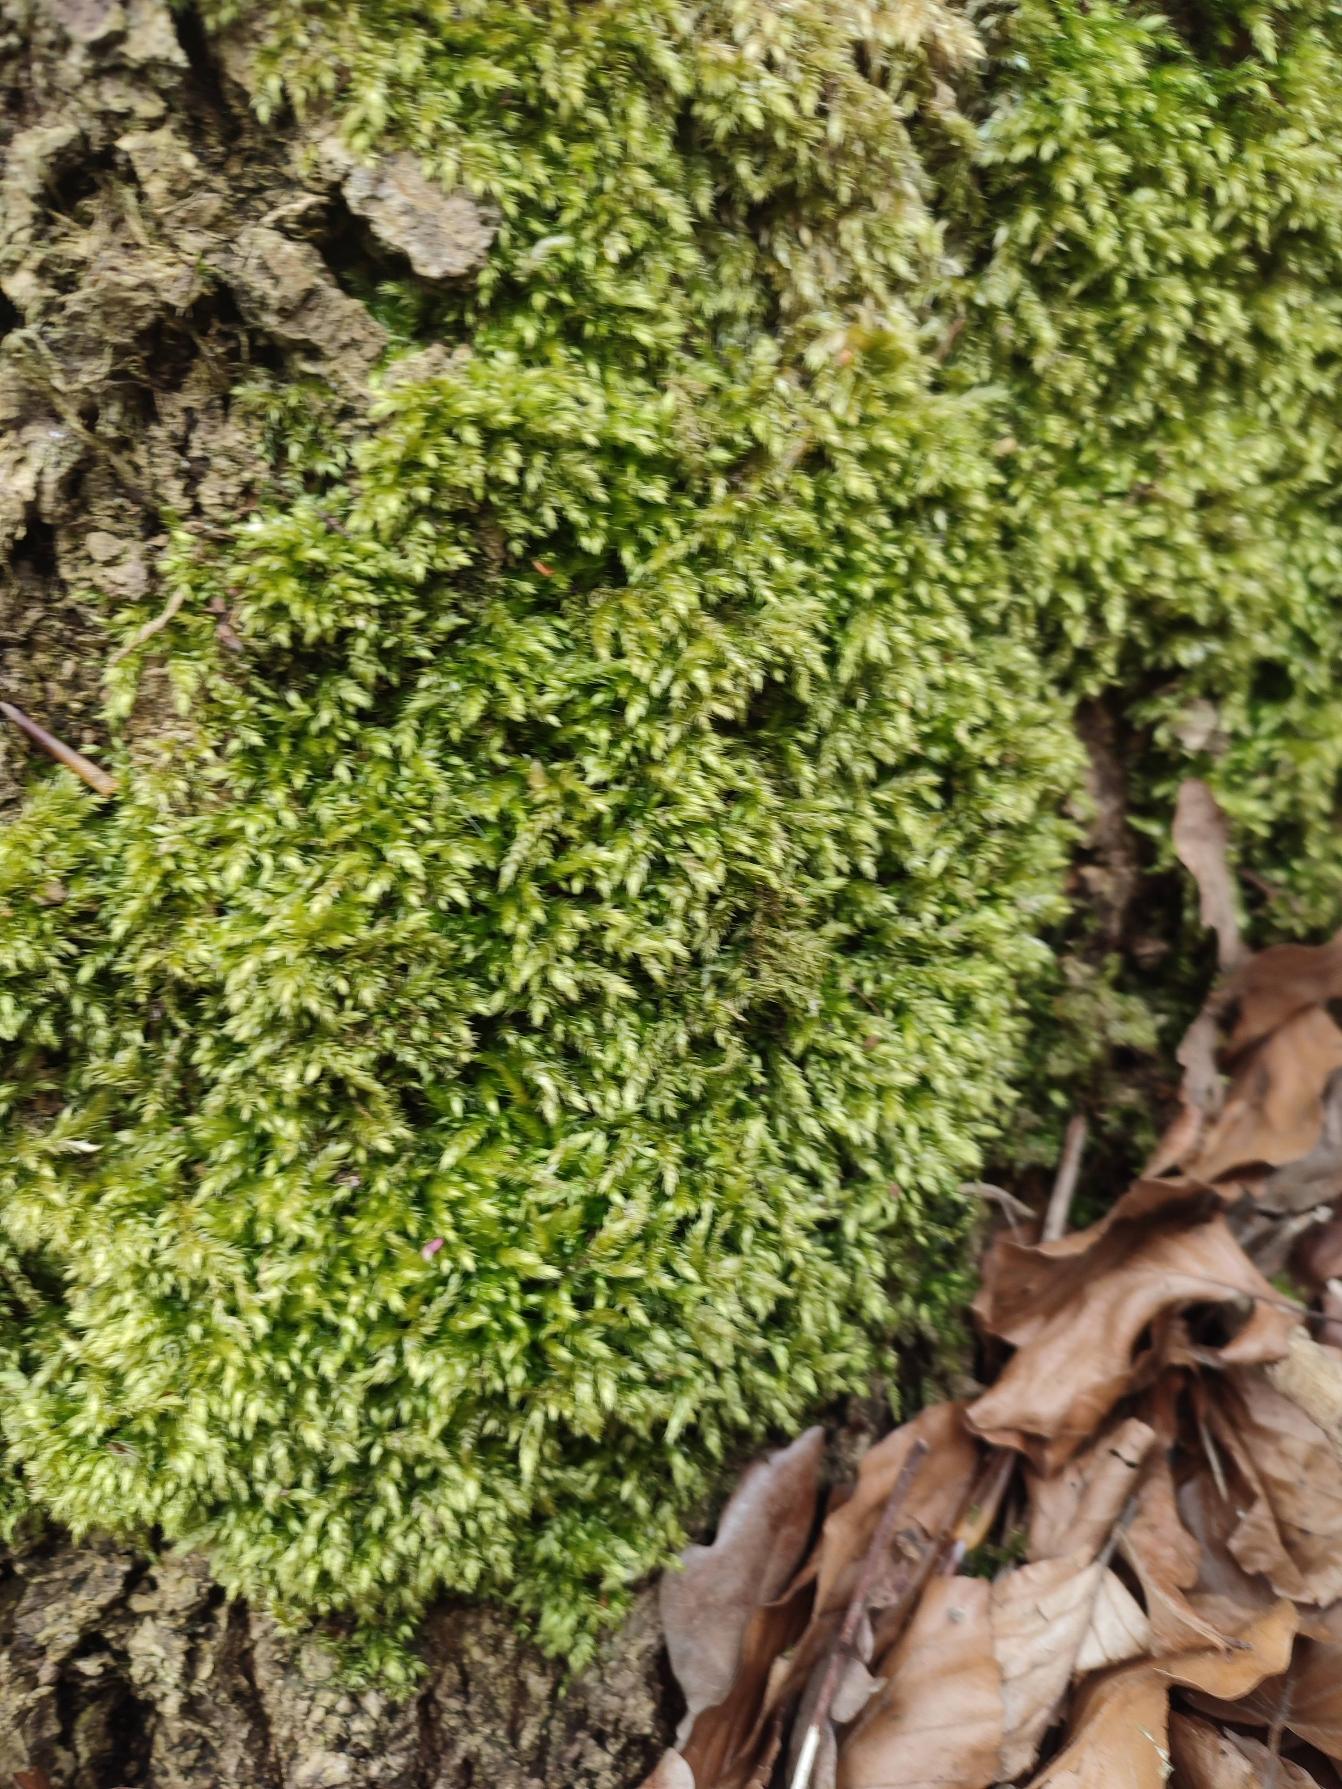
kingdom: Plantae
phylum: Bryophyta
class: Bryopsida
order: Hypnales
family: Brachytheciaceae
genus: Brachythecium
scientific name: Brachythecium rutabulum
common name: Almindelig kortkapsel
